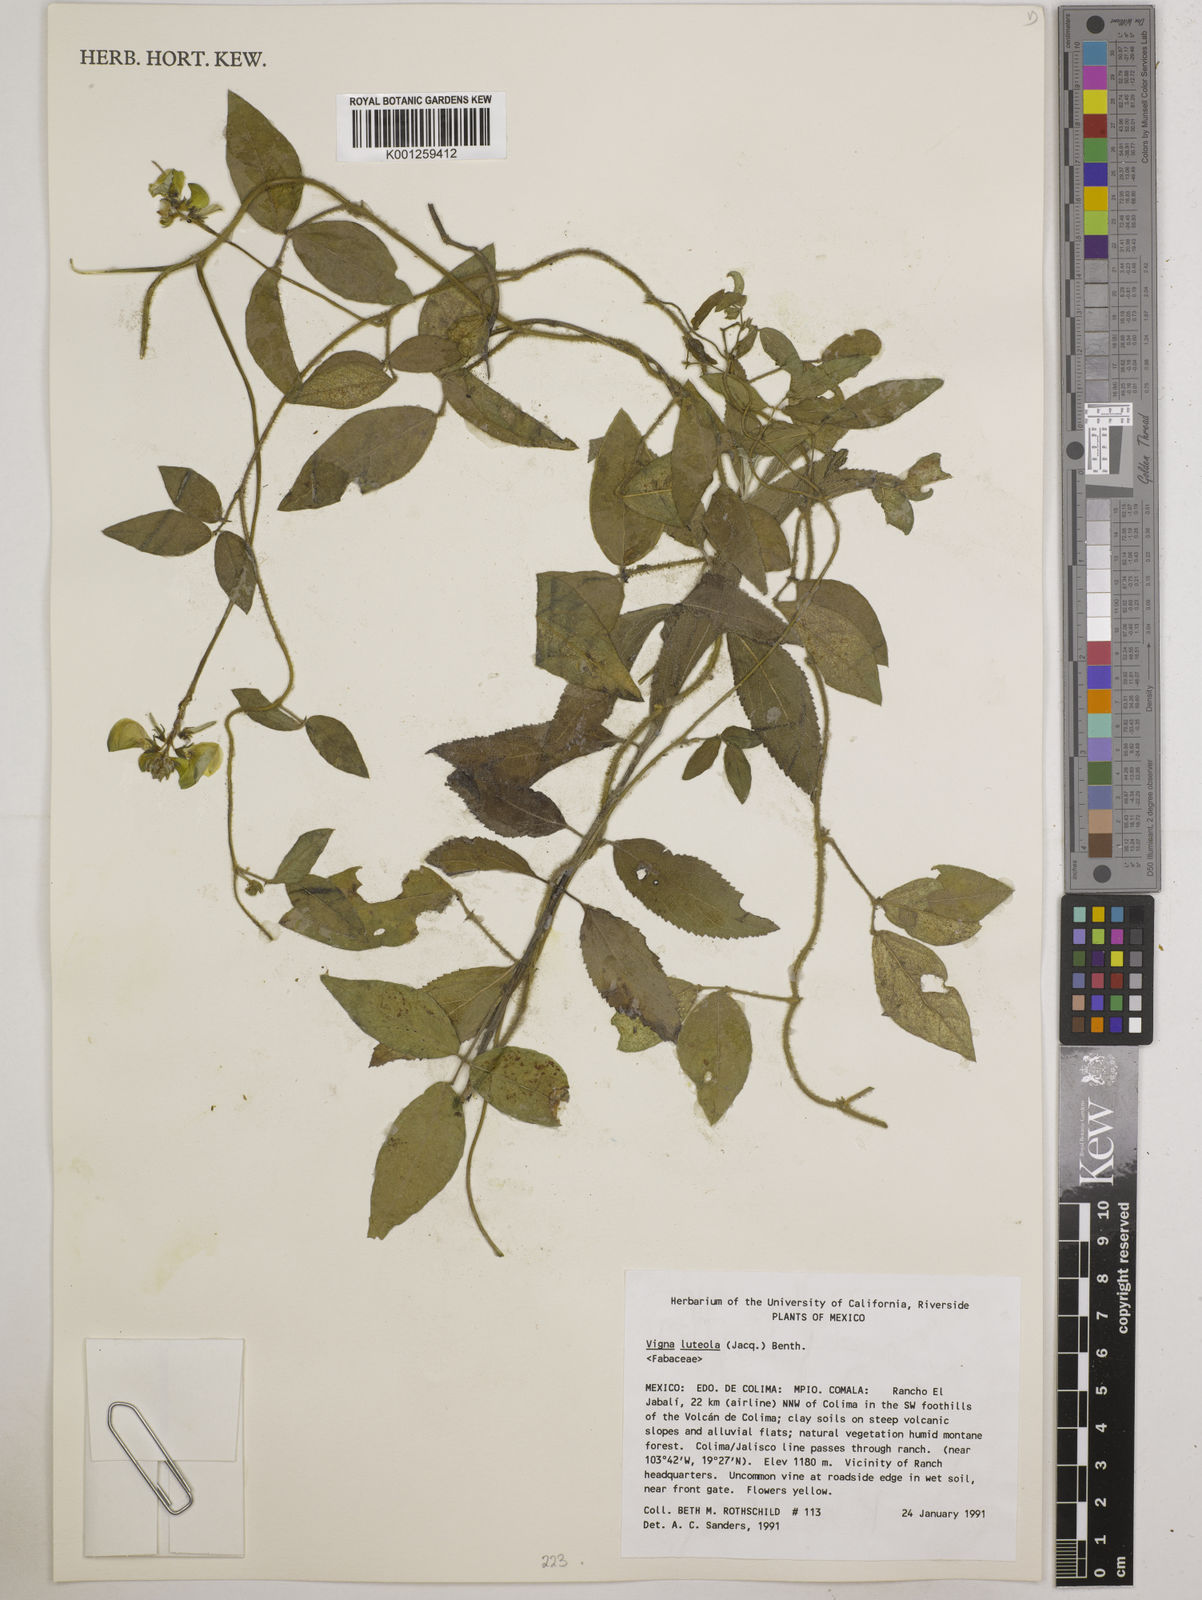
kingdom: Plantae
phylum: Tracheophyta
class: Magnoliopsida
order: Fabales
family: Fabaceae
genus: Vigna
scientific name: Vigna luteola
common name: Hairypod cowpea
